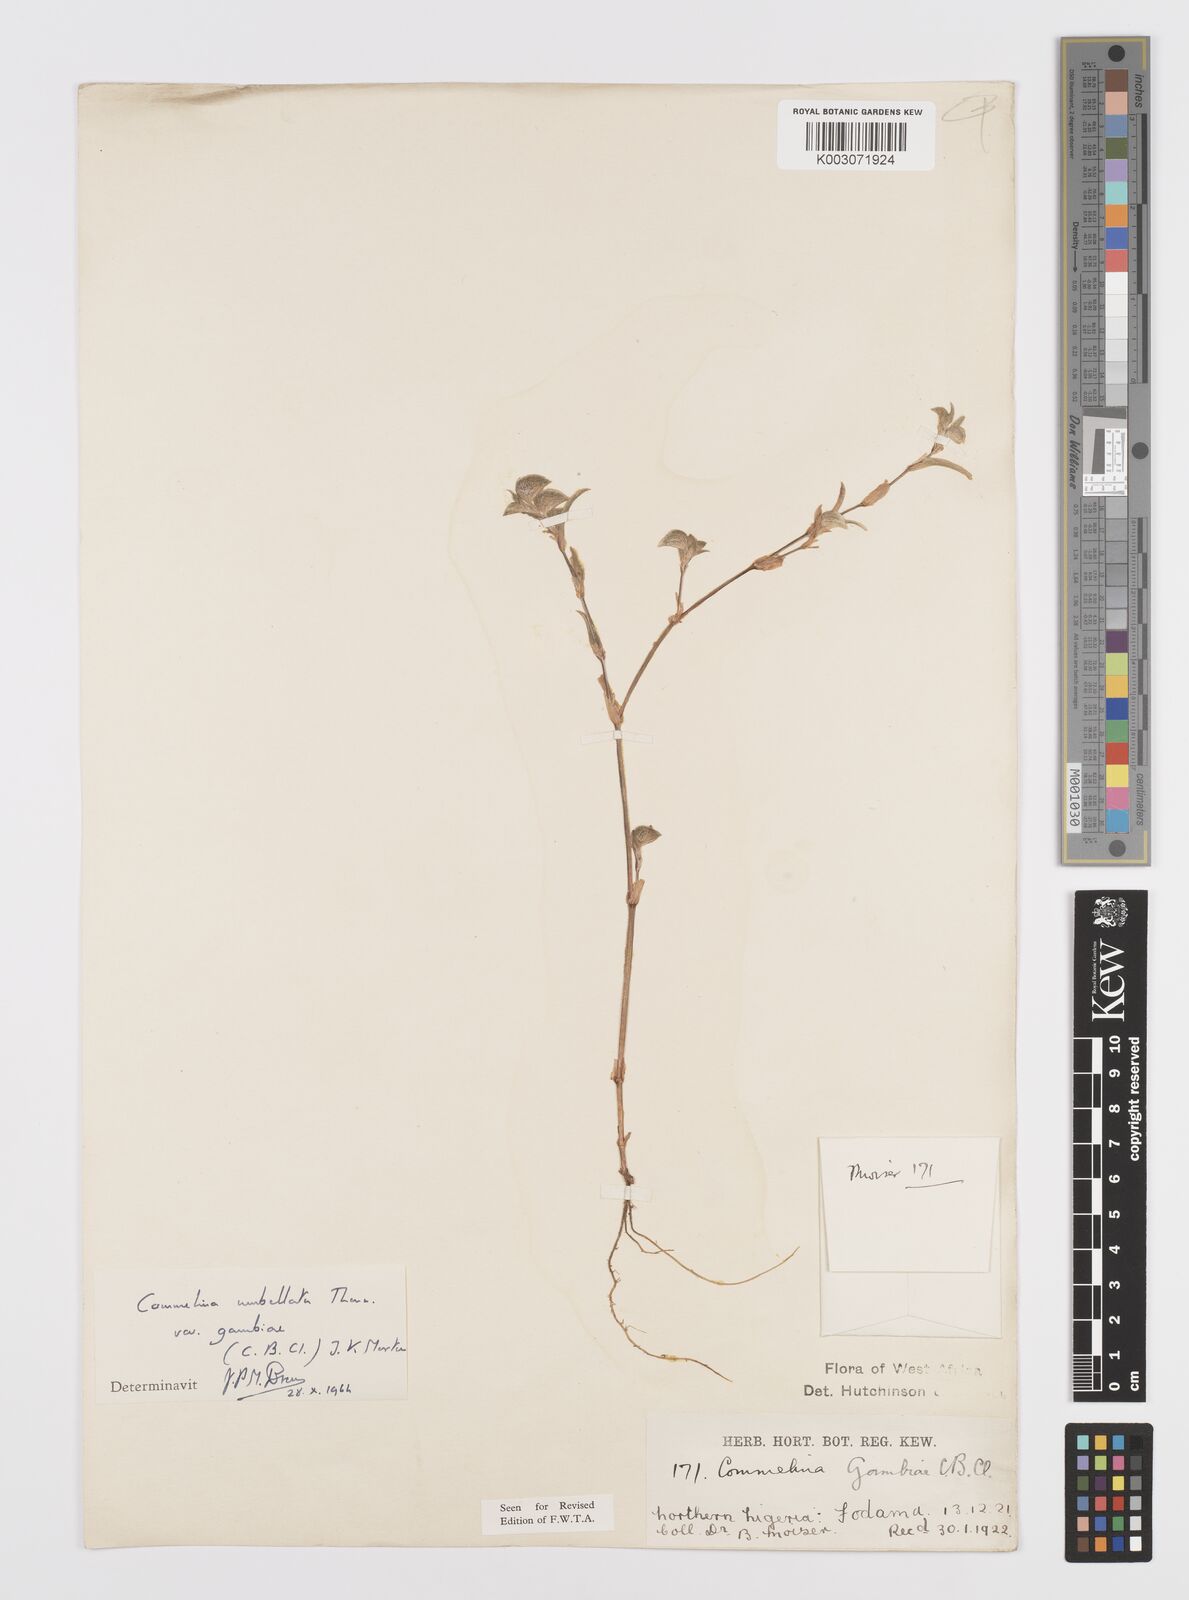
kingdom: Plantae
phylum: Tracheophyta
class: Liliopsida
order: Commelinales
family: Commelinaceae
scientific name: Commelinaceae
